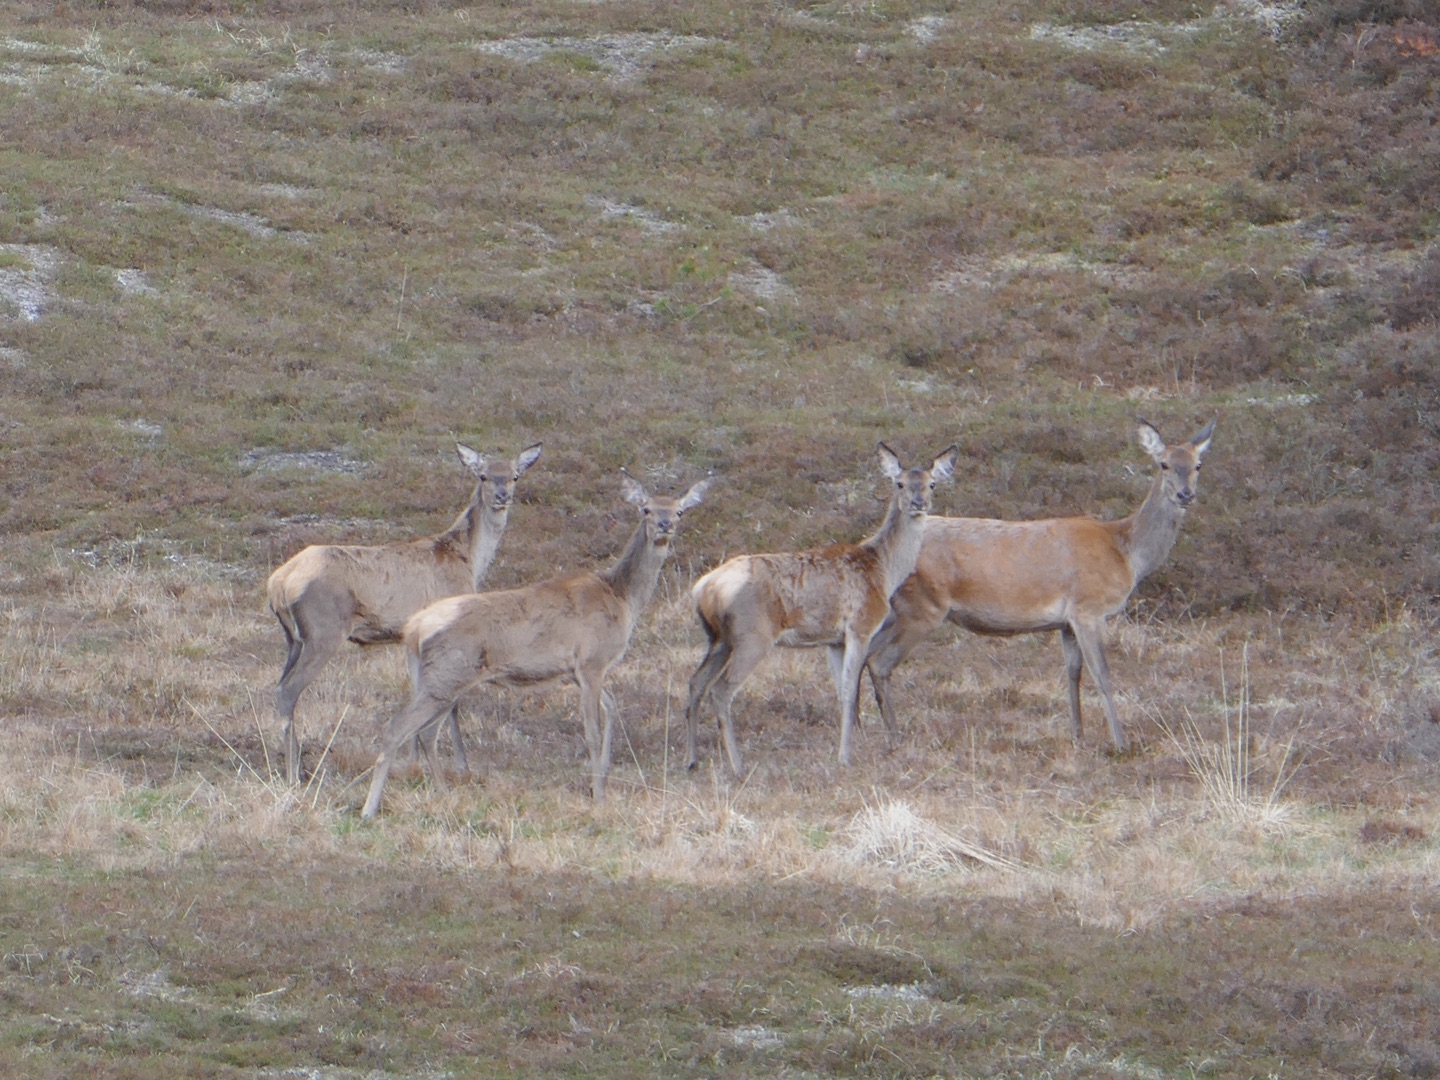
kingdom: Animalia
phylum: Chordata
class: Mammalia
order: Artiodactyla
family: Cervidae
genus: Cervus
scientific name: Cervus elaphus
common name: Krondyr
